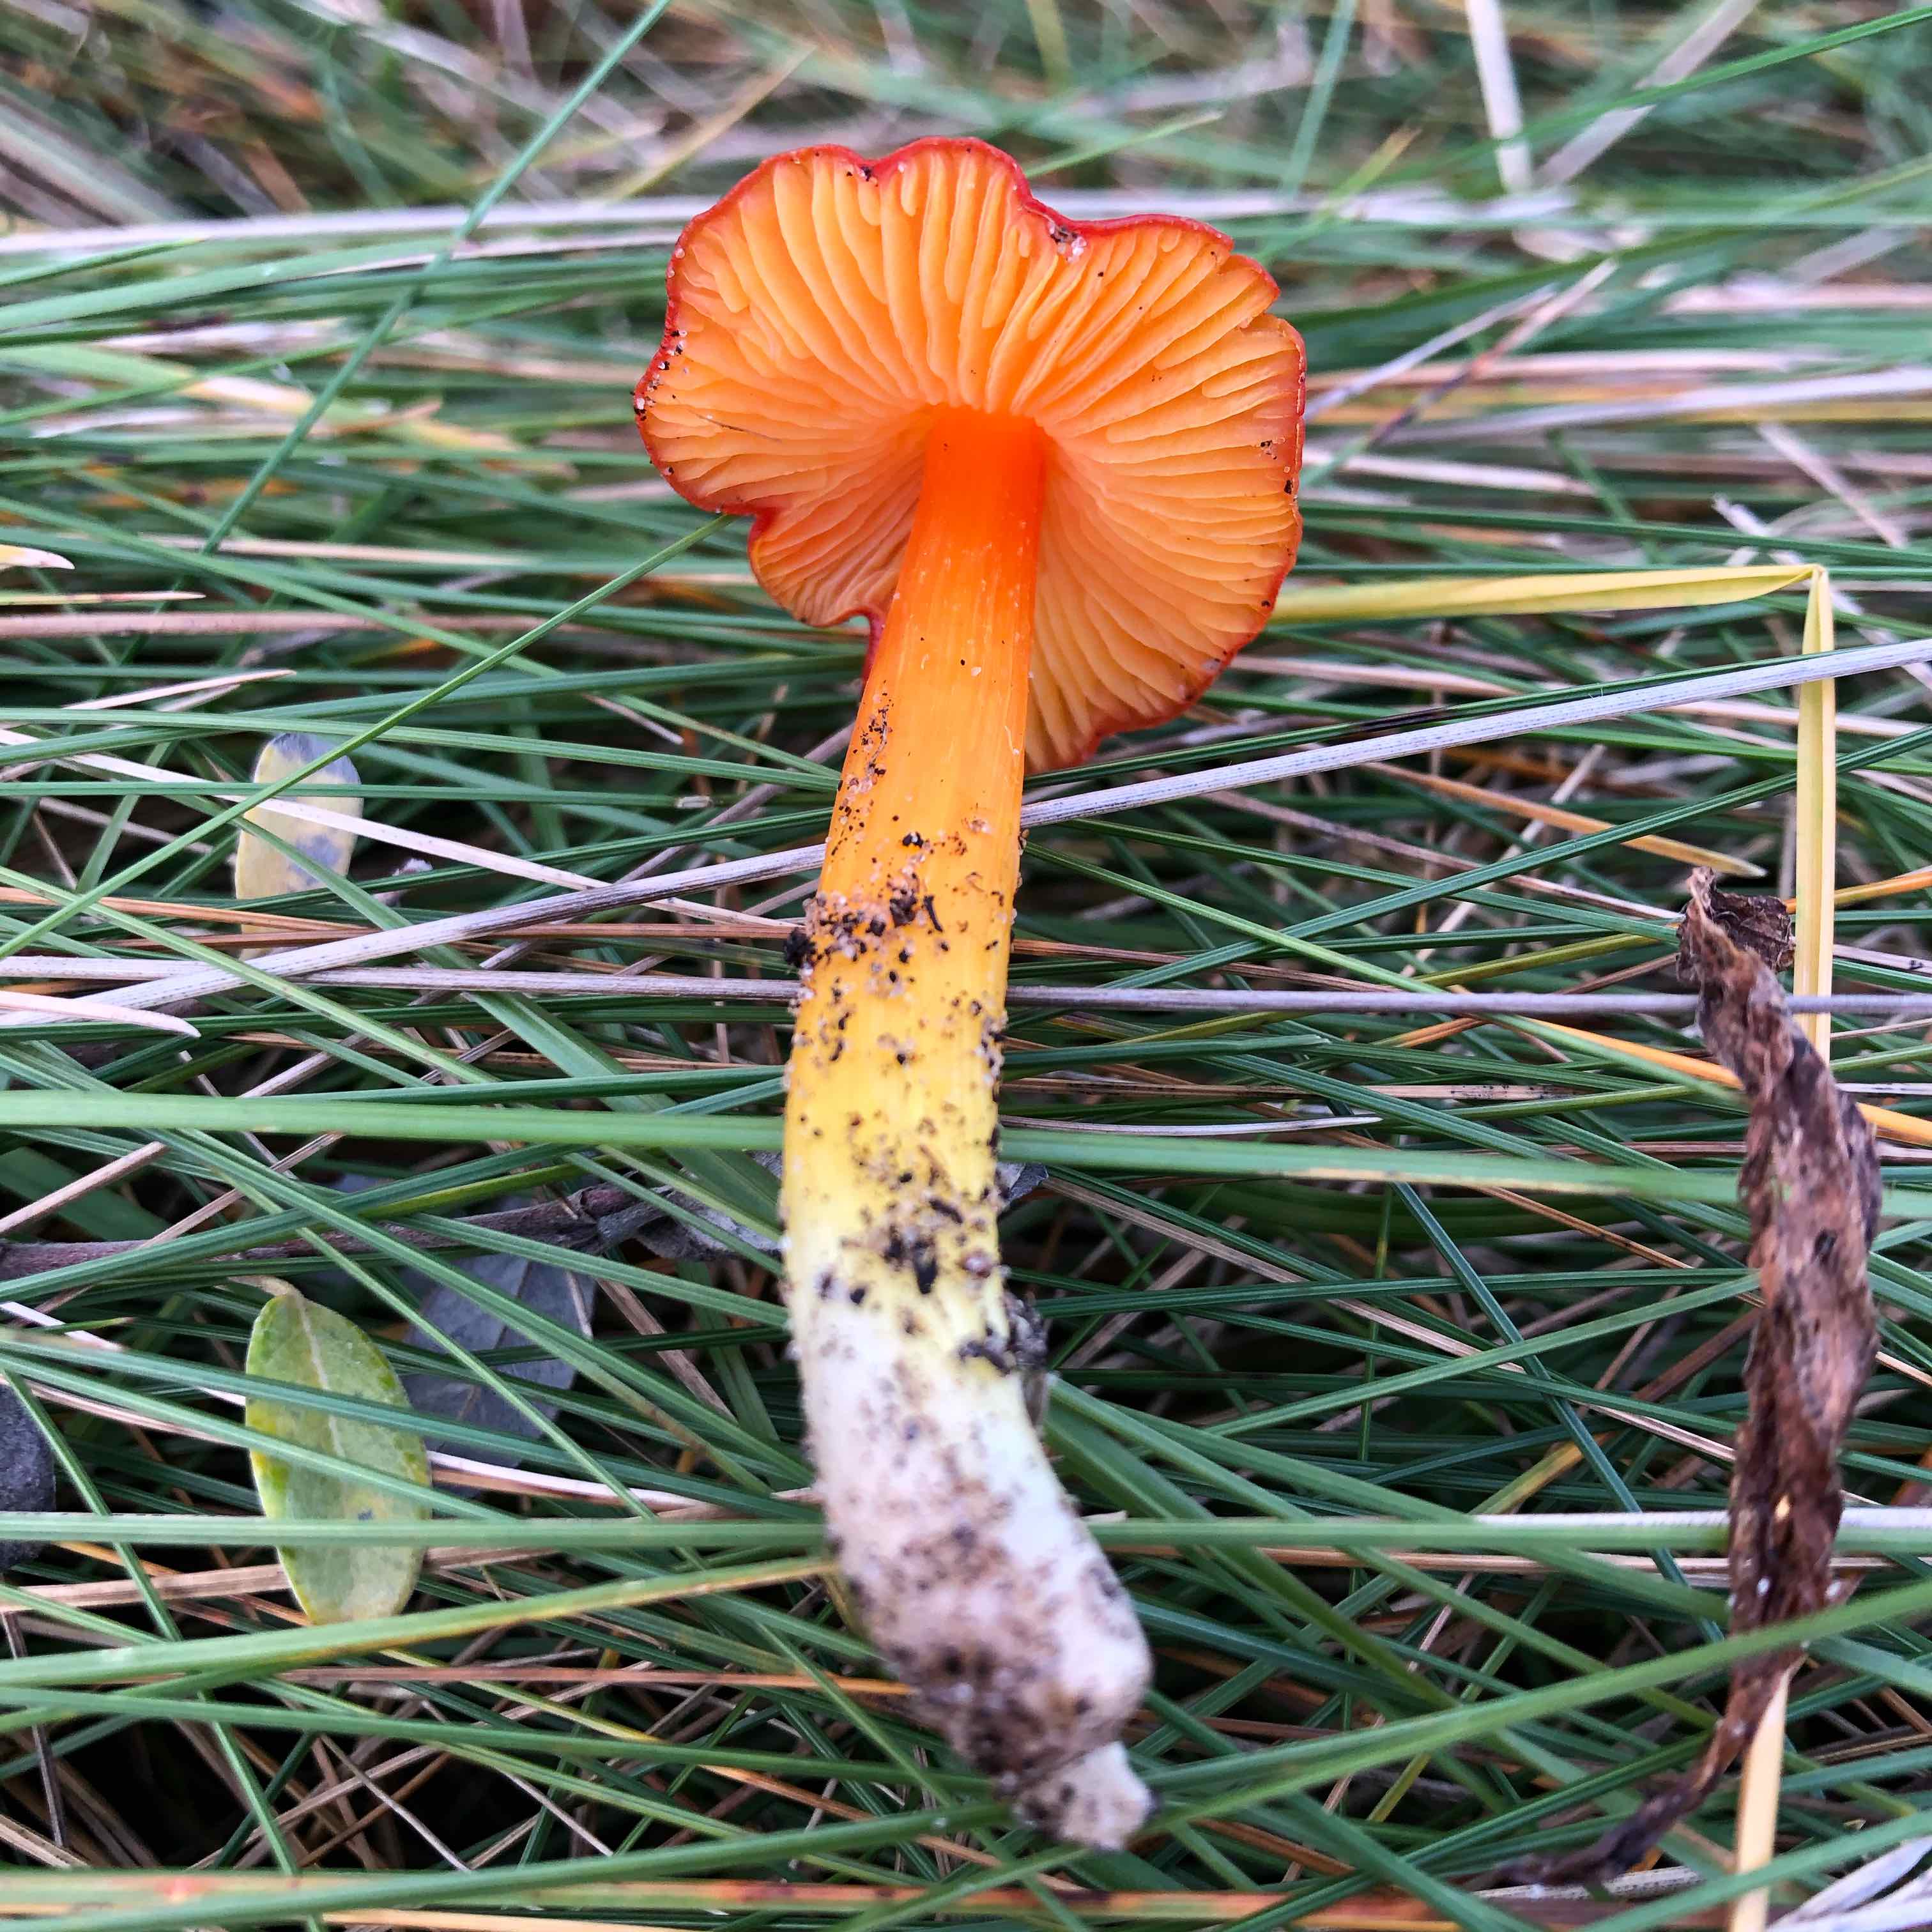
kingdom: Fungi
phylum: Basidiomycota
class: Agaricomycetes
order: Agaricales
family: Hygrophoraceae
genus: Hygrocybe
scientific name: Hygrocybe conica
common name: kegle-vokshat
